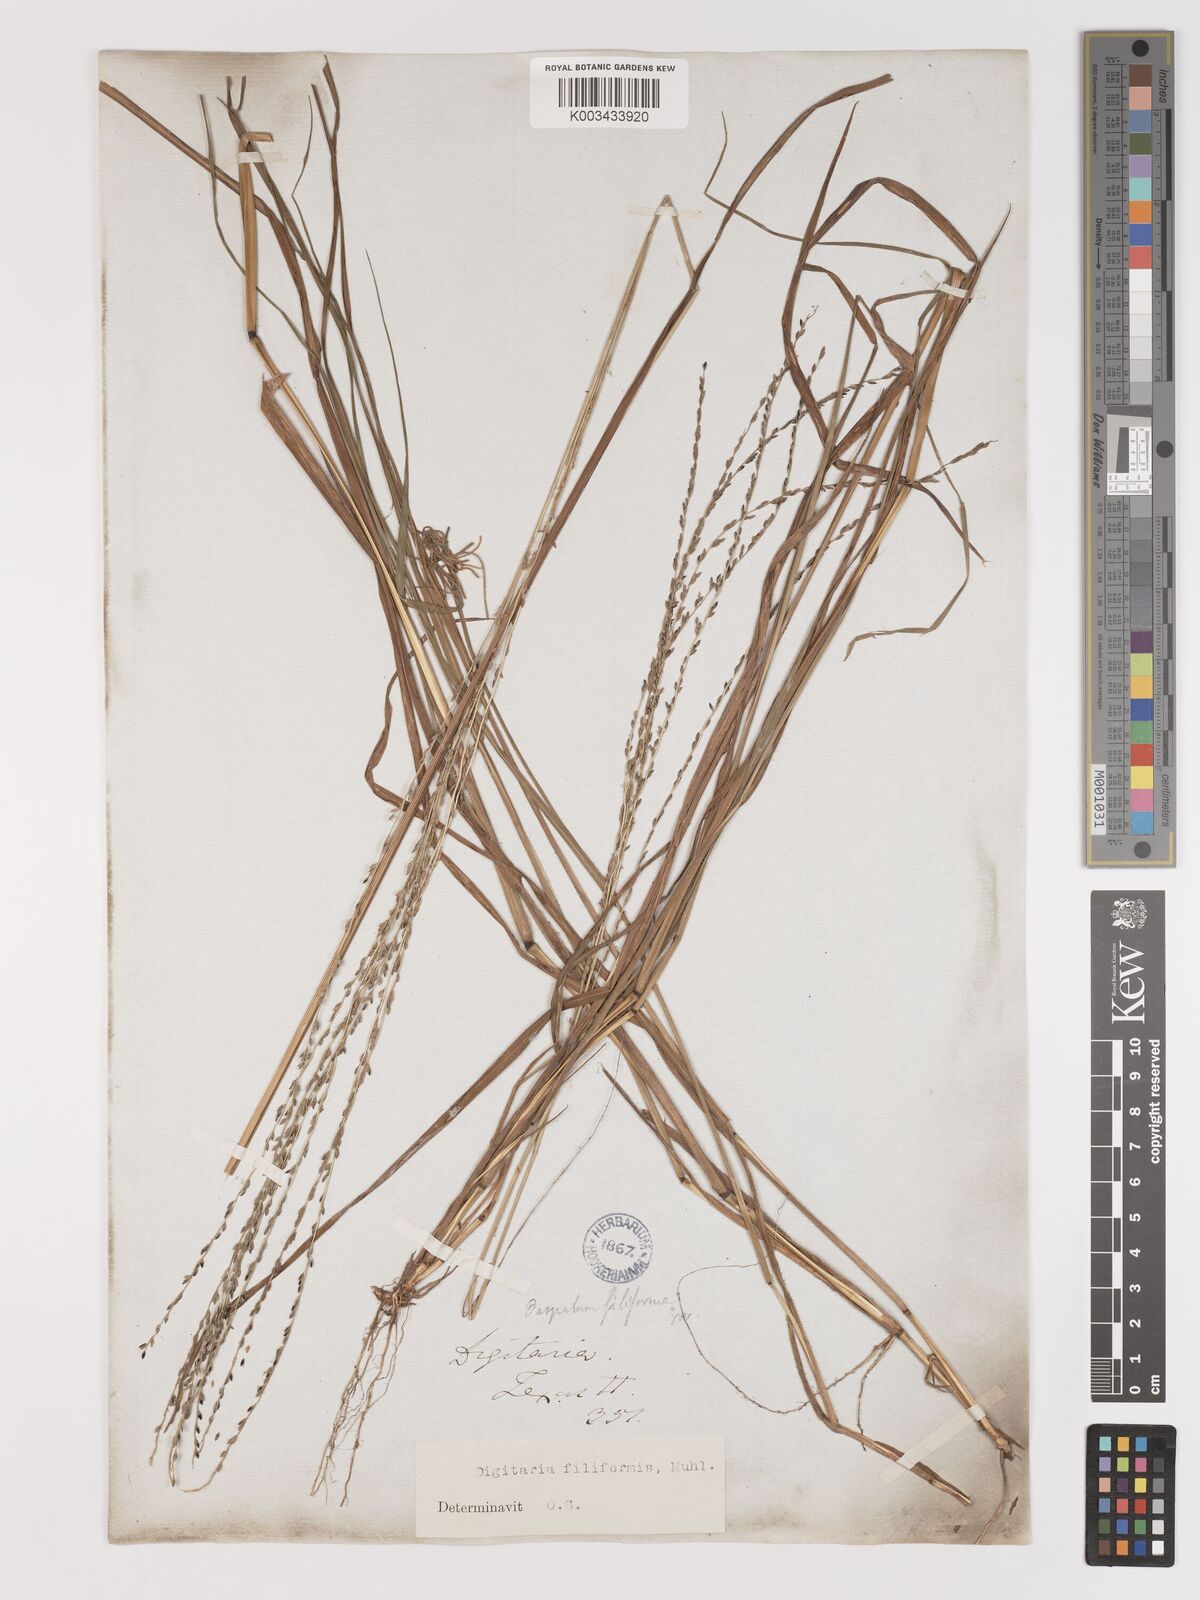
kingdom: Plantae
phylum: Tracheophyta
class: Liliopsida
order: Poales
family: Poaceae
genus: Digitaria
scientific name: Digitaria filiformis
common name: Slender crabgrass
